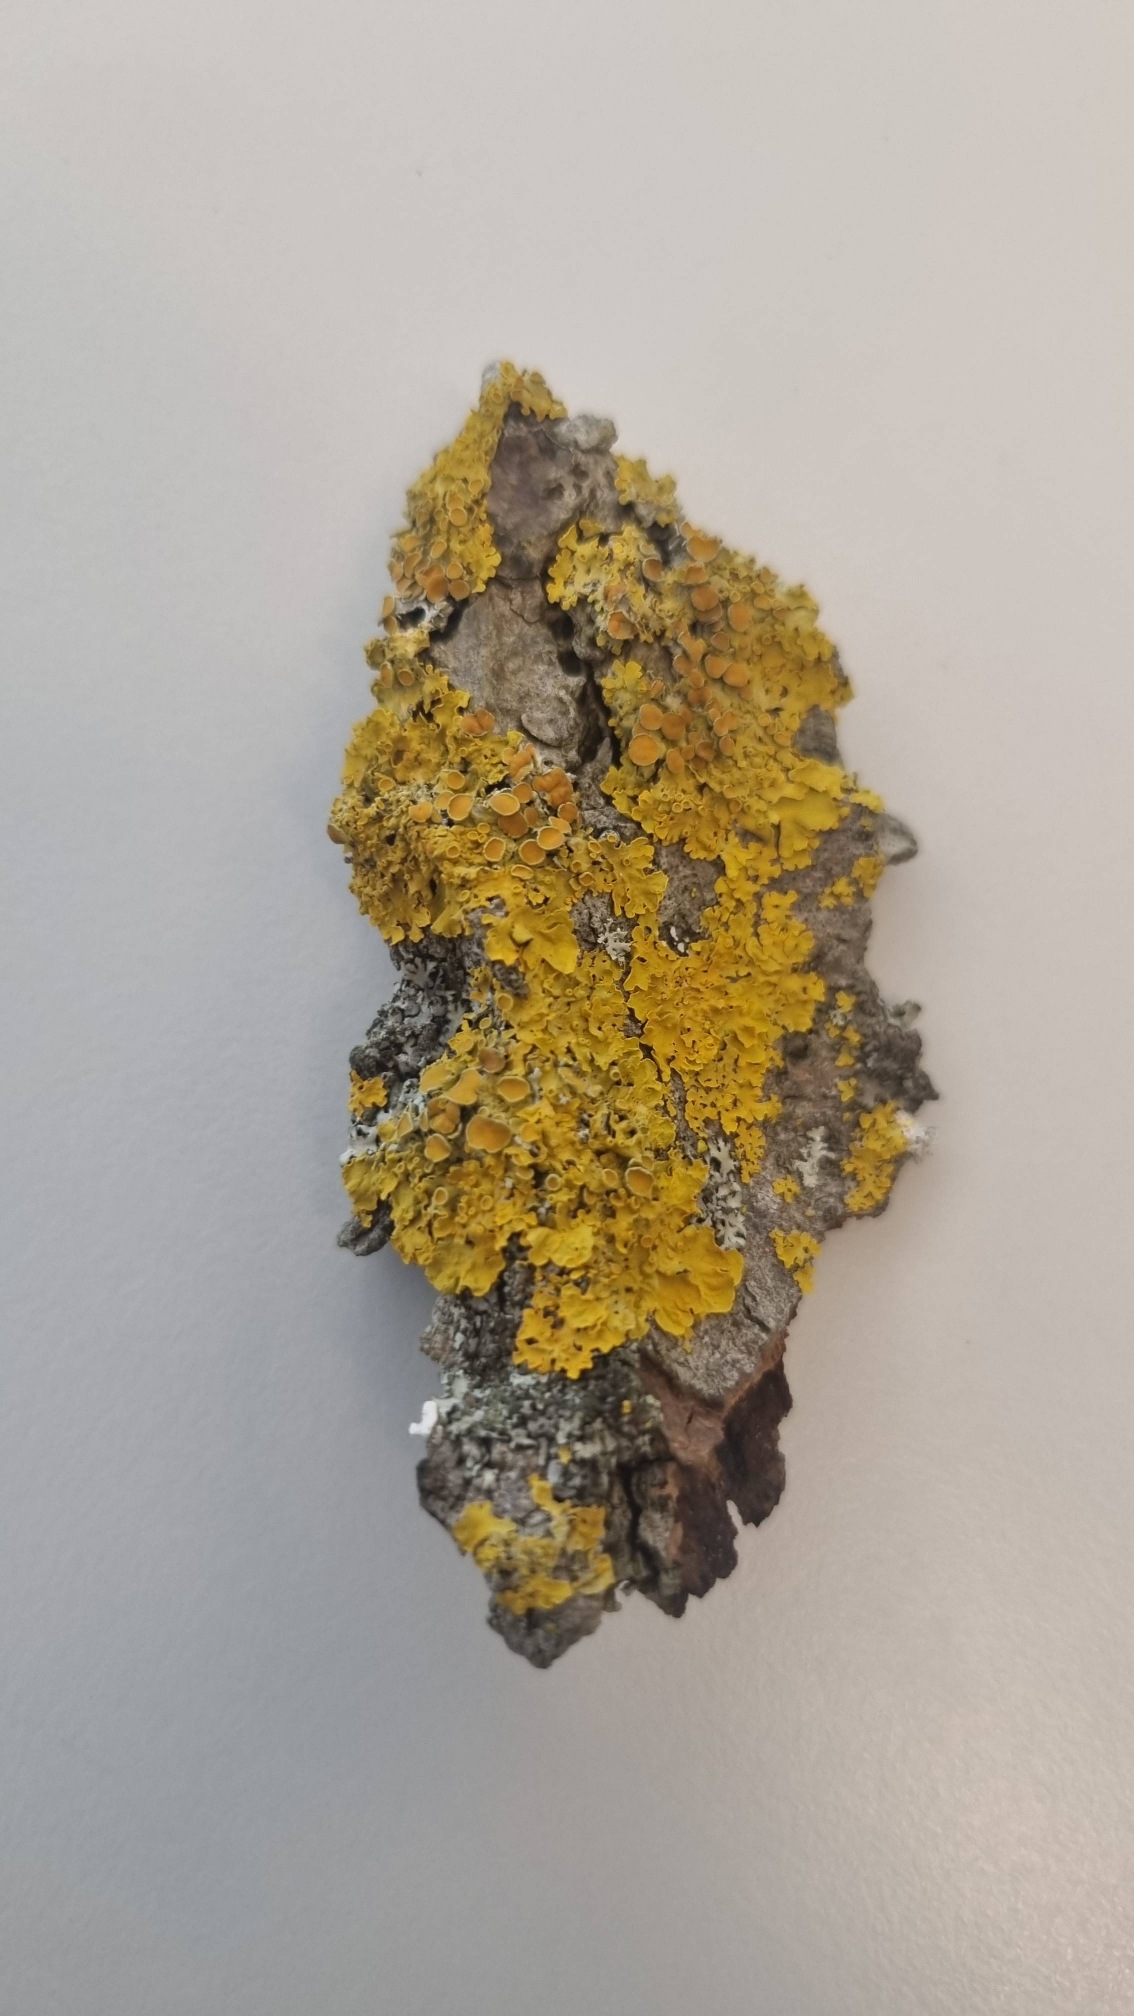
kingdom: Fungi
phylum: Ascomycota
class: Lecanoromycetes
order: Teloschistales
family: Teloschistaceae
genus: Xanthoria
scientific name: Xanthoria parietina
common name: Almindelig væggelav
